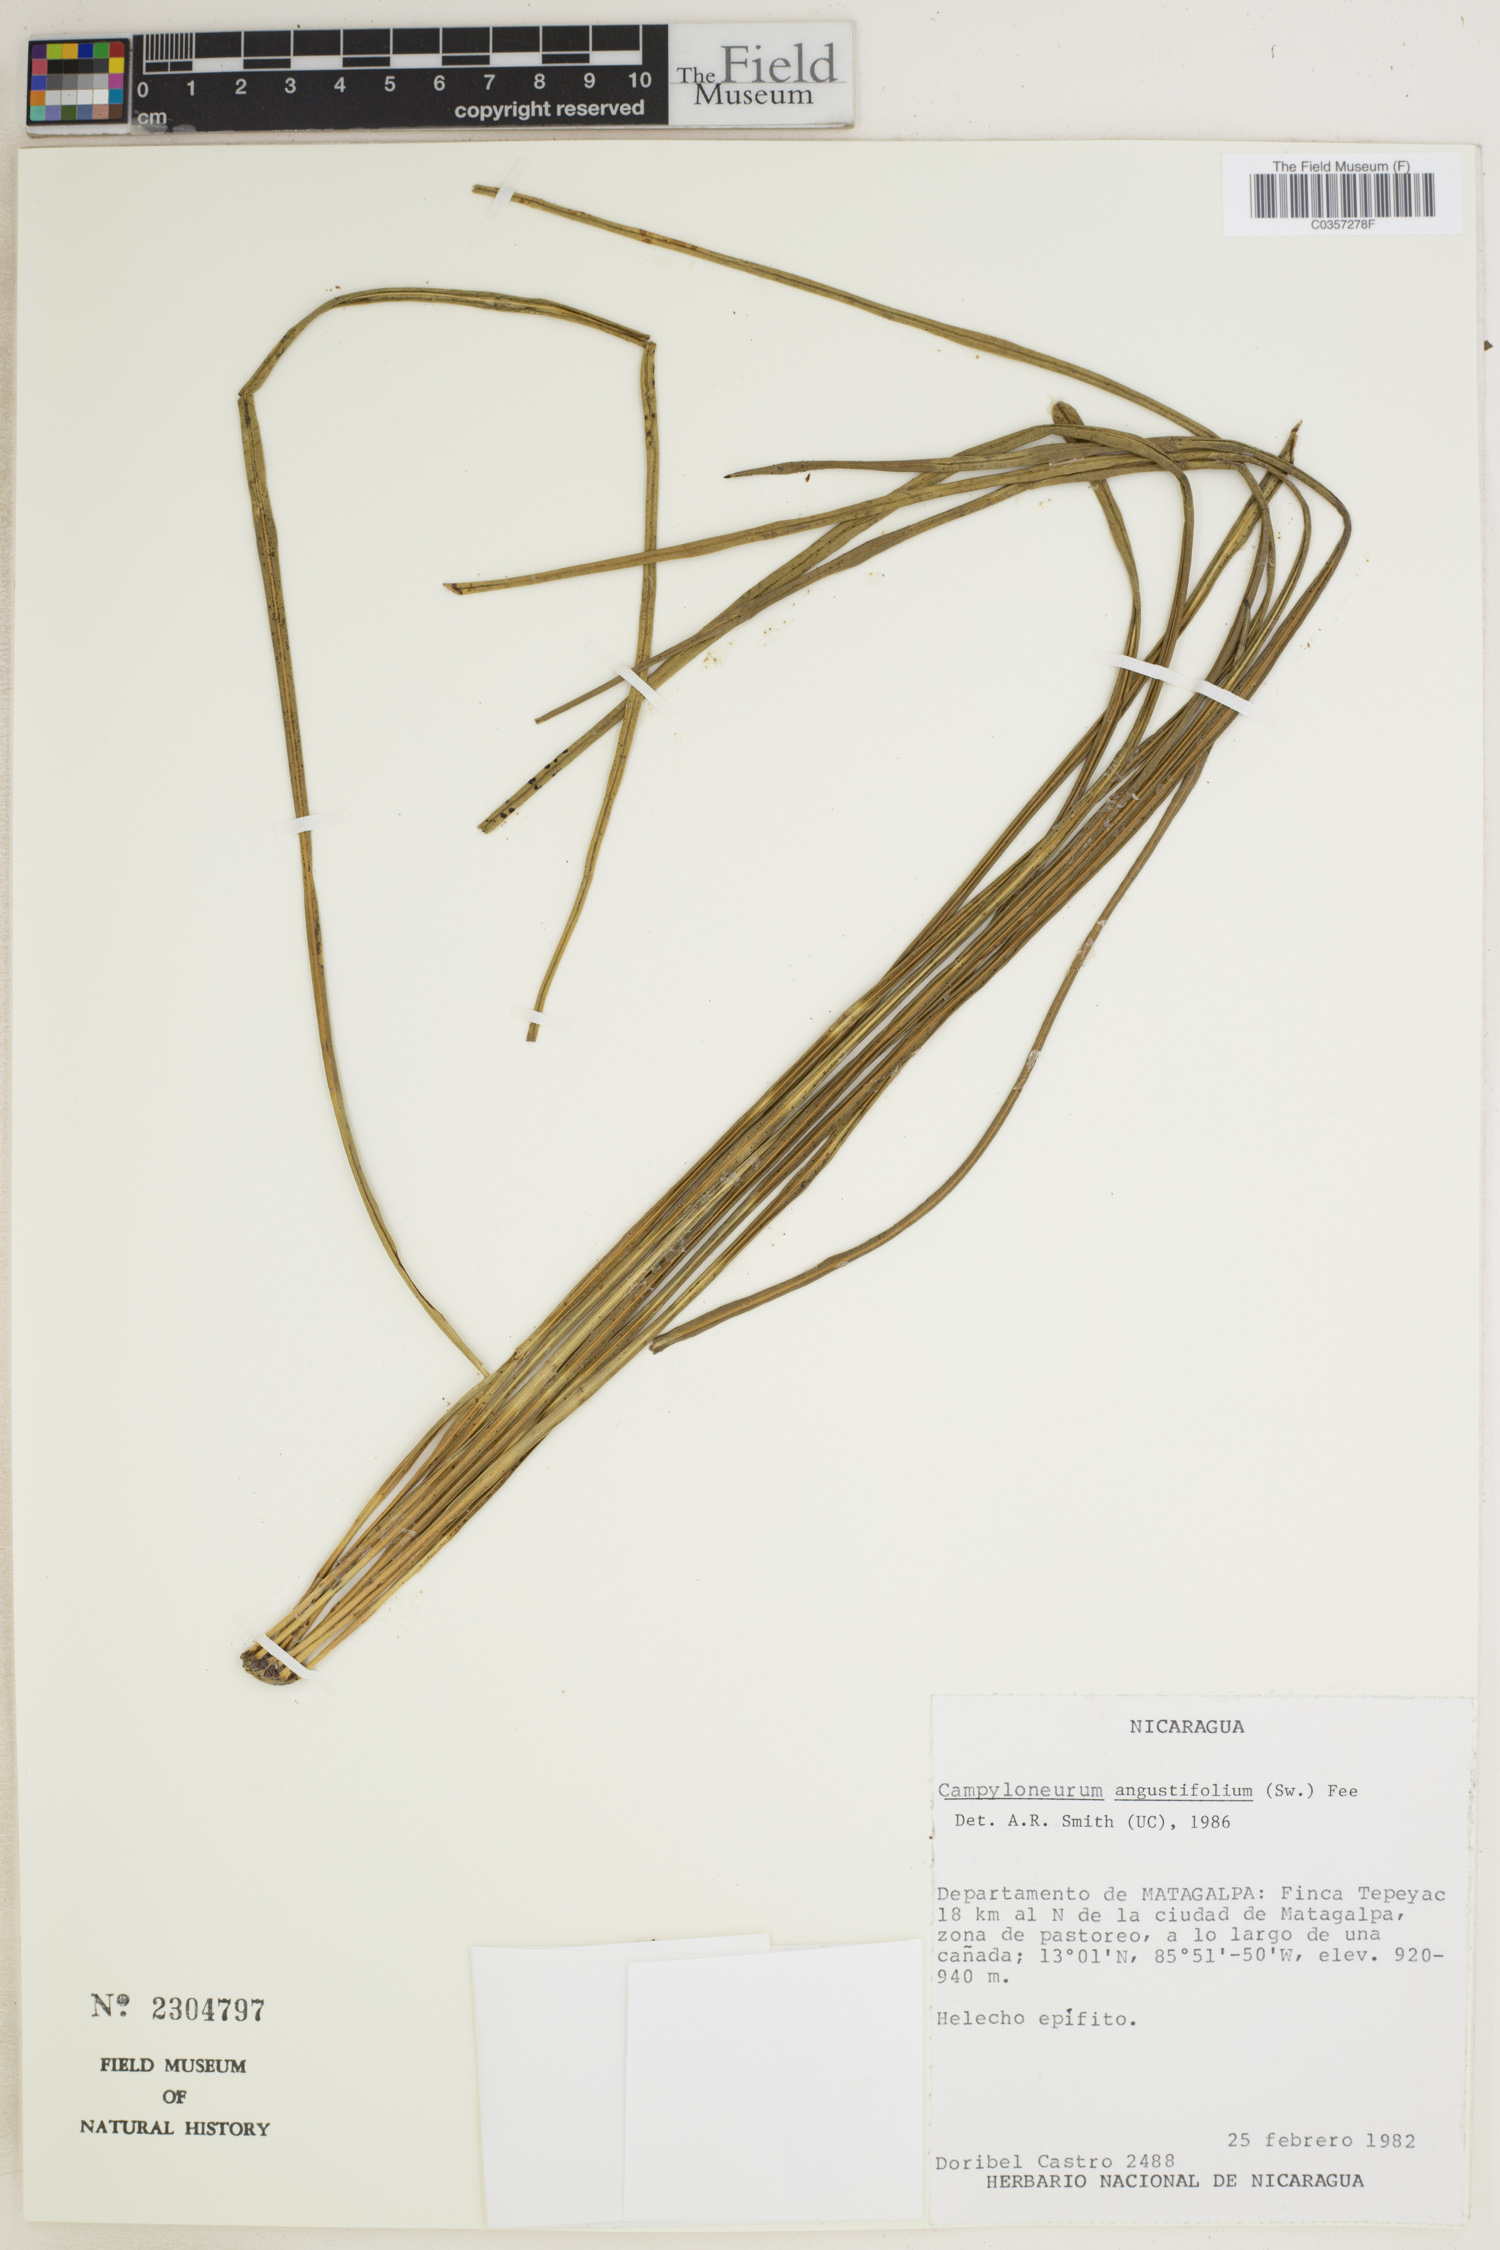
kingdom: Plantae
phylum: Tracheophyta
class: Polypodiopsida
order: Polypodiales
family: Polypodiaceae
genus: Campyloneurum
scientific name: Campyloneurum angustifolium
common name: Narrow-leaf strap fern
